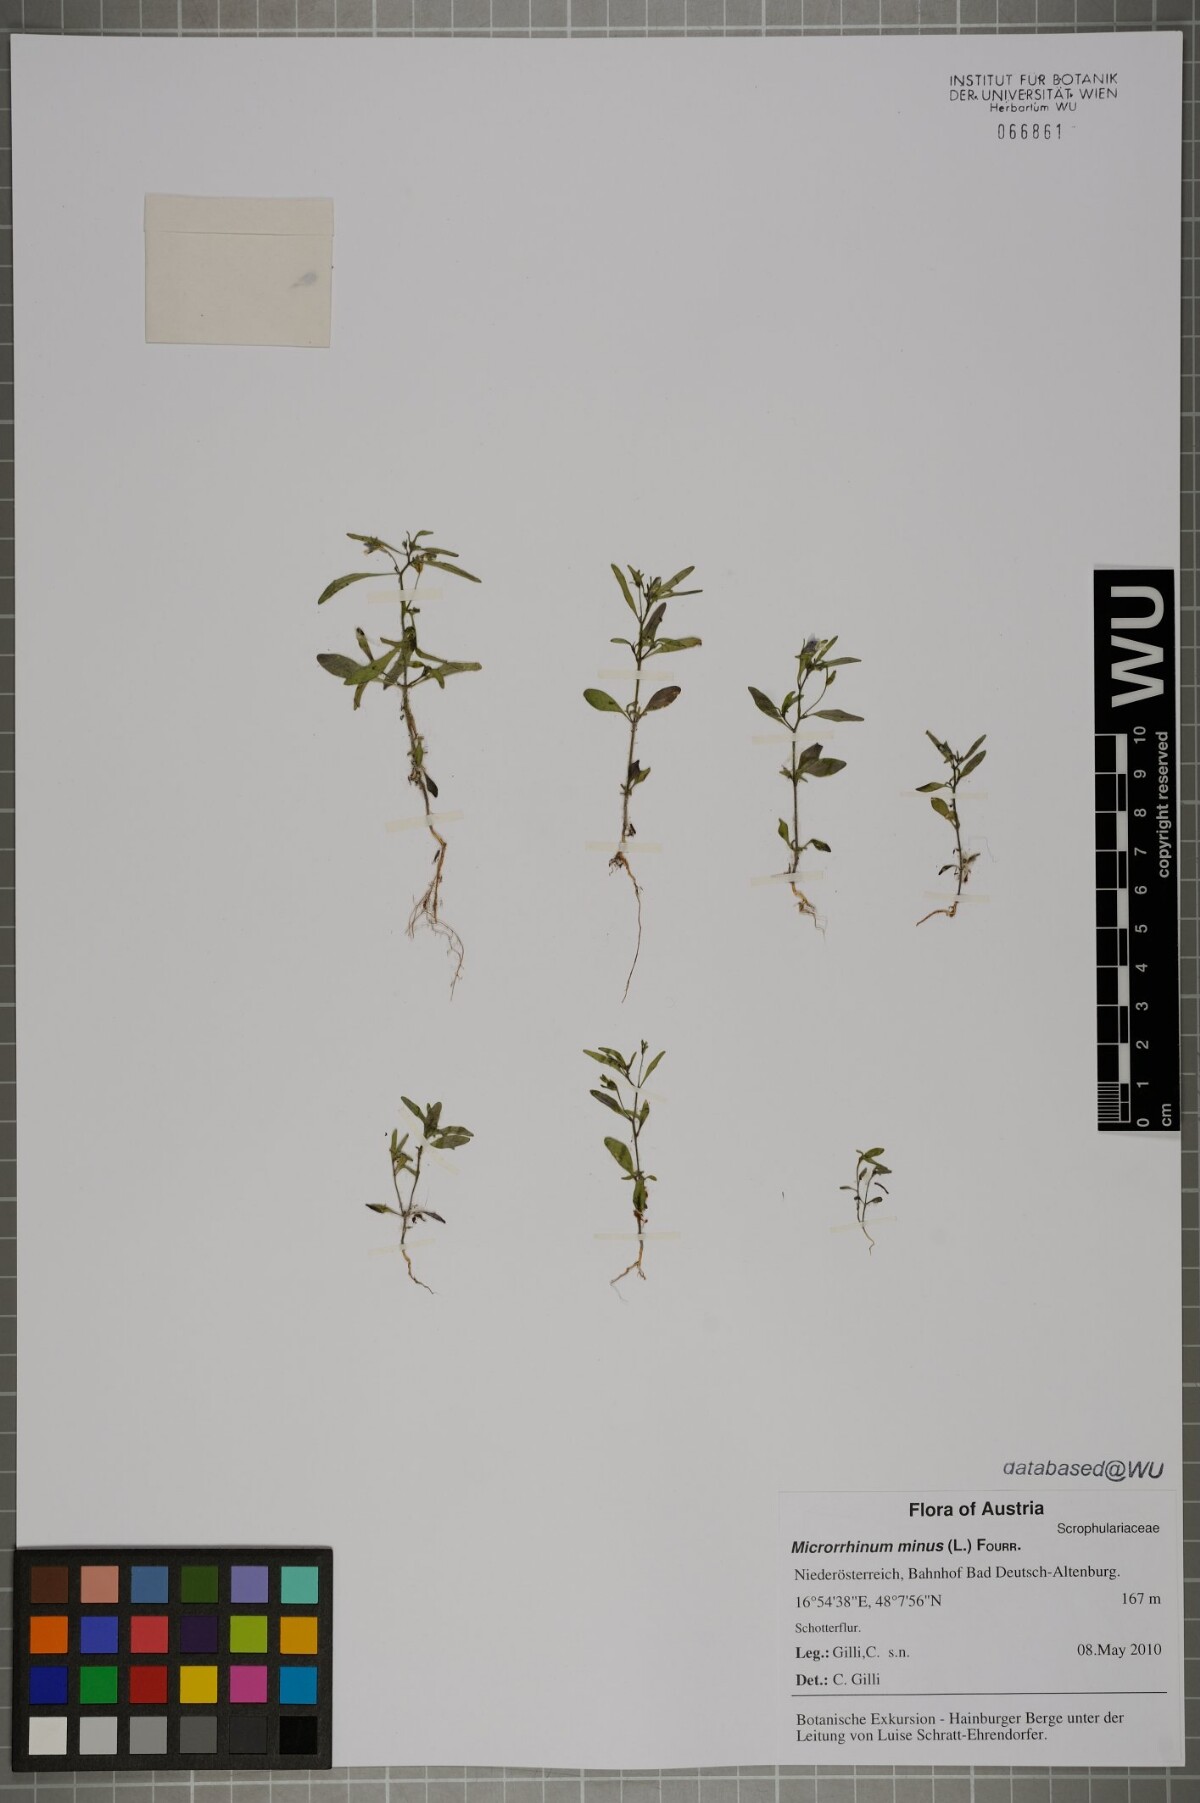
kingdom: Plantae
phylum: Tracheophyta
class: Magnoliopsida
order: Lamiales
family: Plantaginaceae
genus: Chaenorhinum
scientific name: Chaenorhinum minus
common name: Dwarf snapdragon
